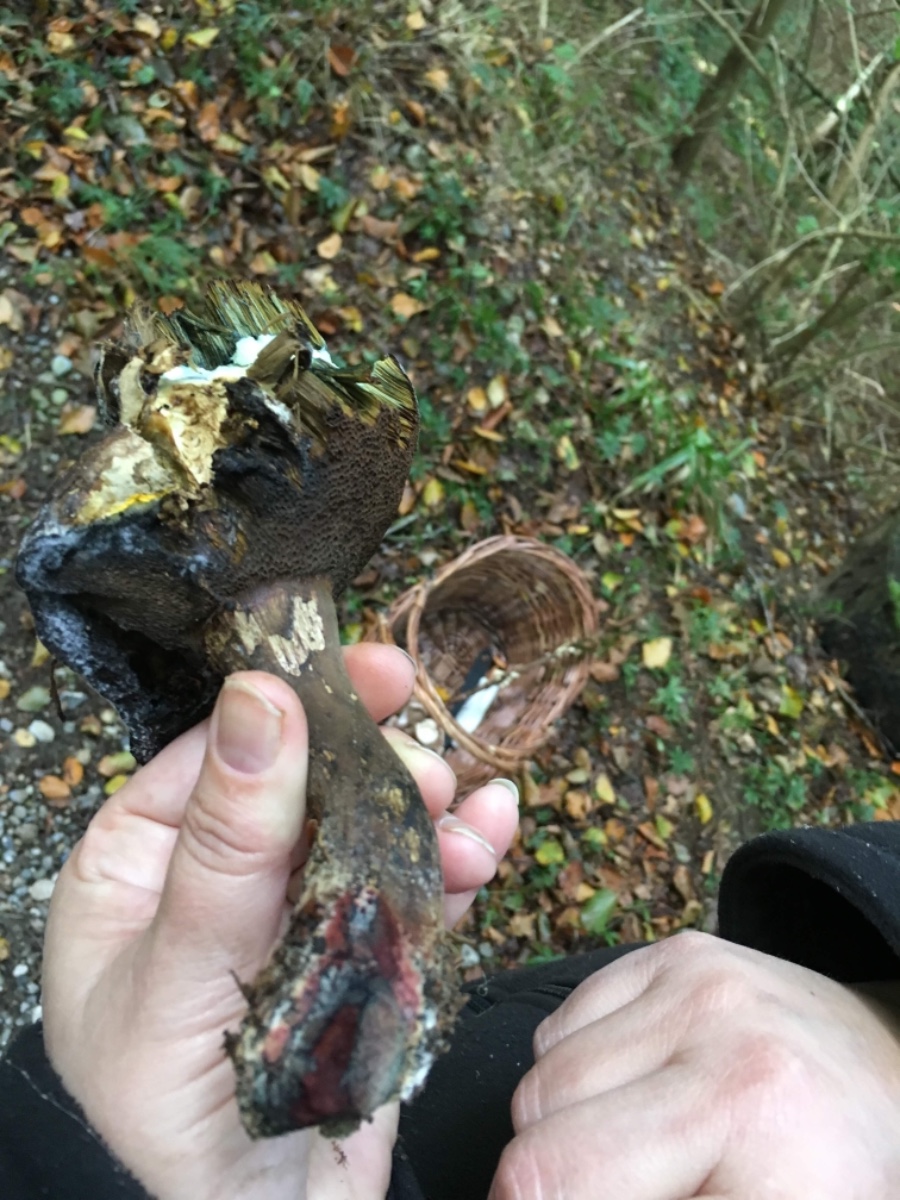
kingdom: Fungi
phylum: Basidiomycota
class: Agaricomycetes
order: Boletales
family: Boletaceae
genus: Porphyrellus
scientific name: Porphyrellus porphyrosporus
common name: sodrørhat
